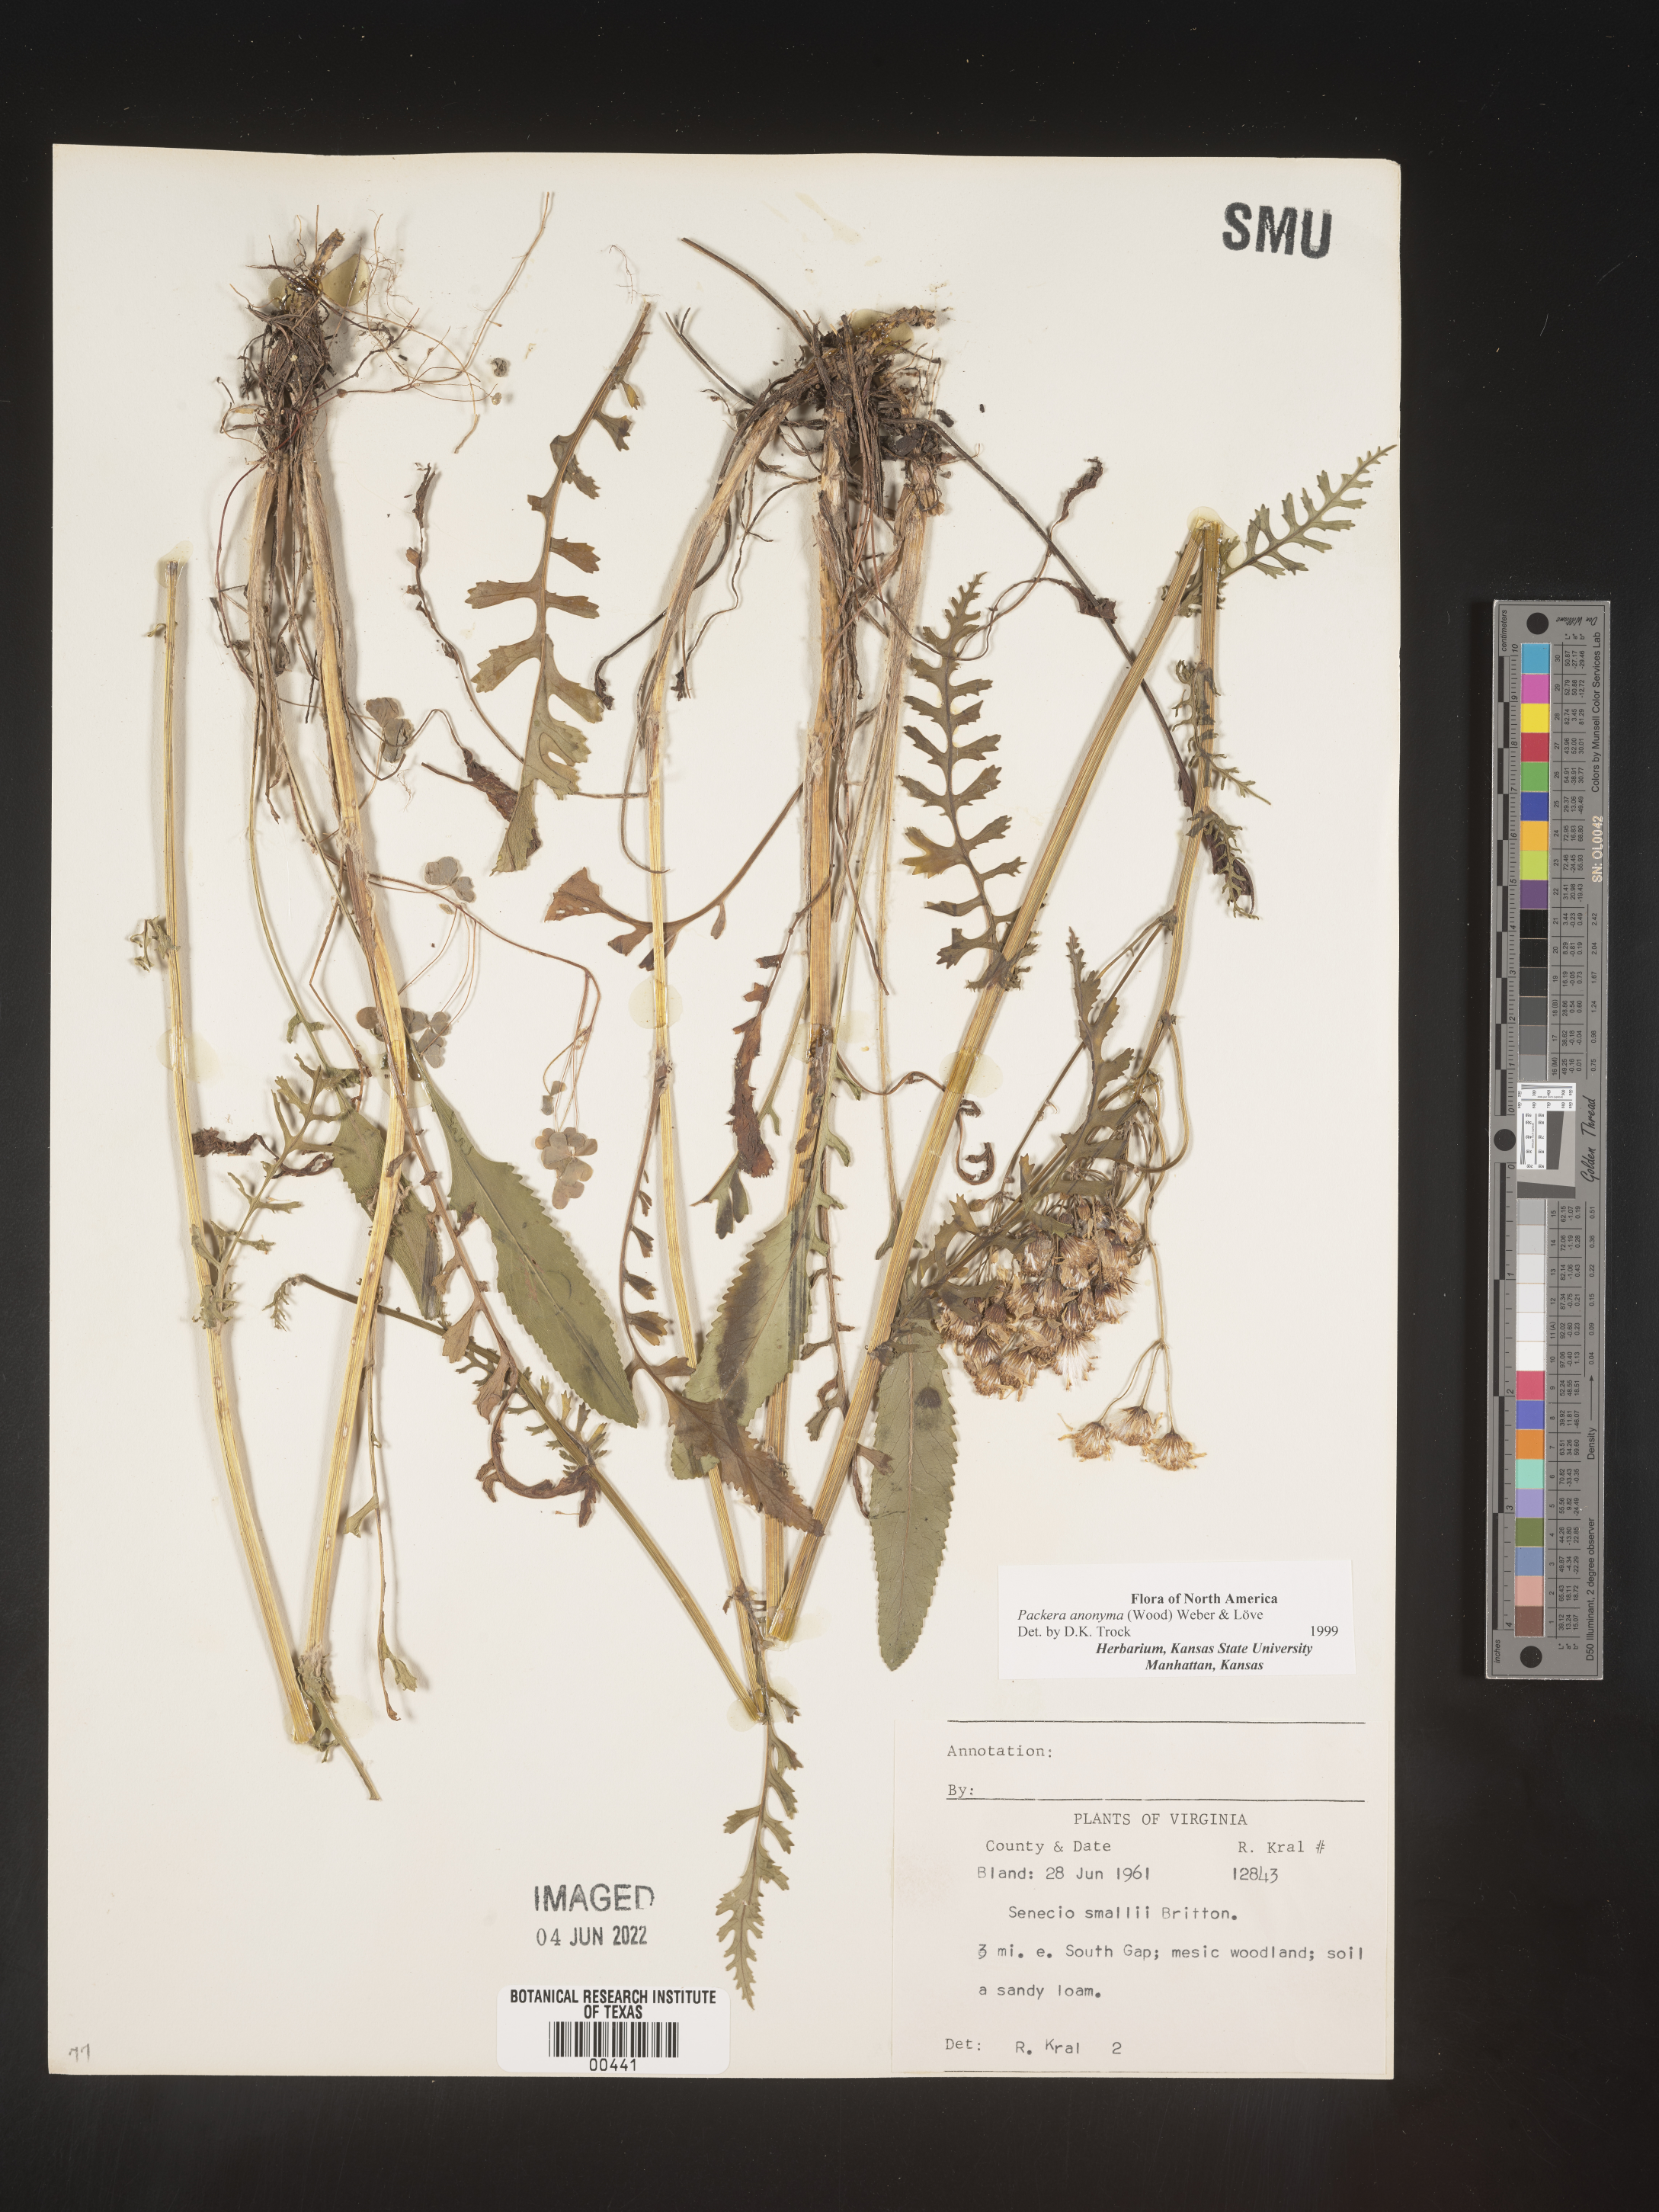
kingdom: Plantae
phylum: Tracheophyta
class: Magnoliopsida
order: Asterales
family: Asteraceae
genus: Packera
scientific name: Packera anonyma
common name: Small ragwort
